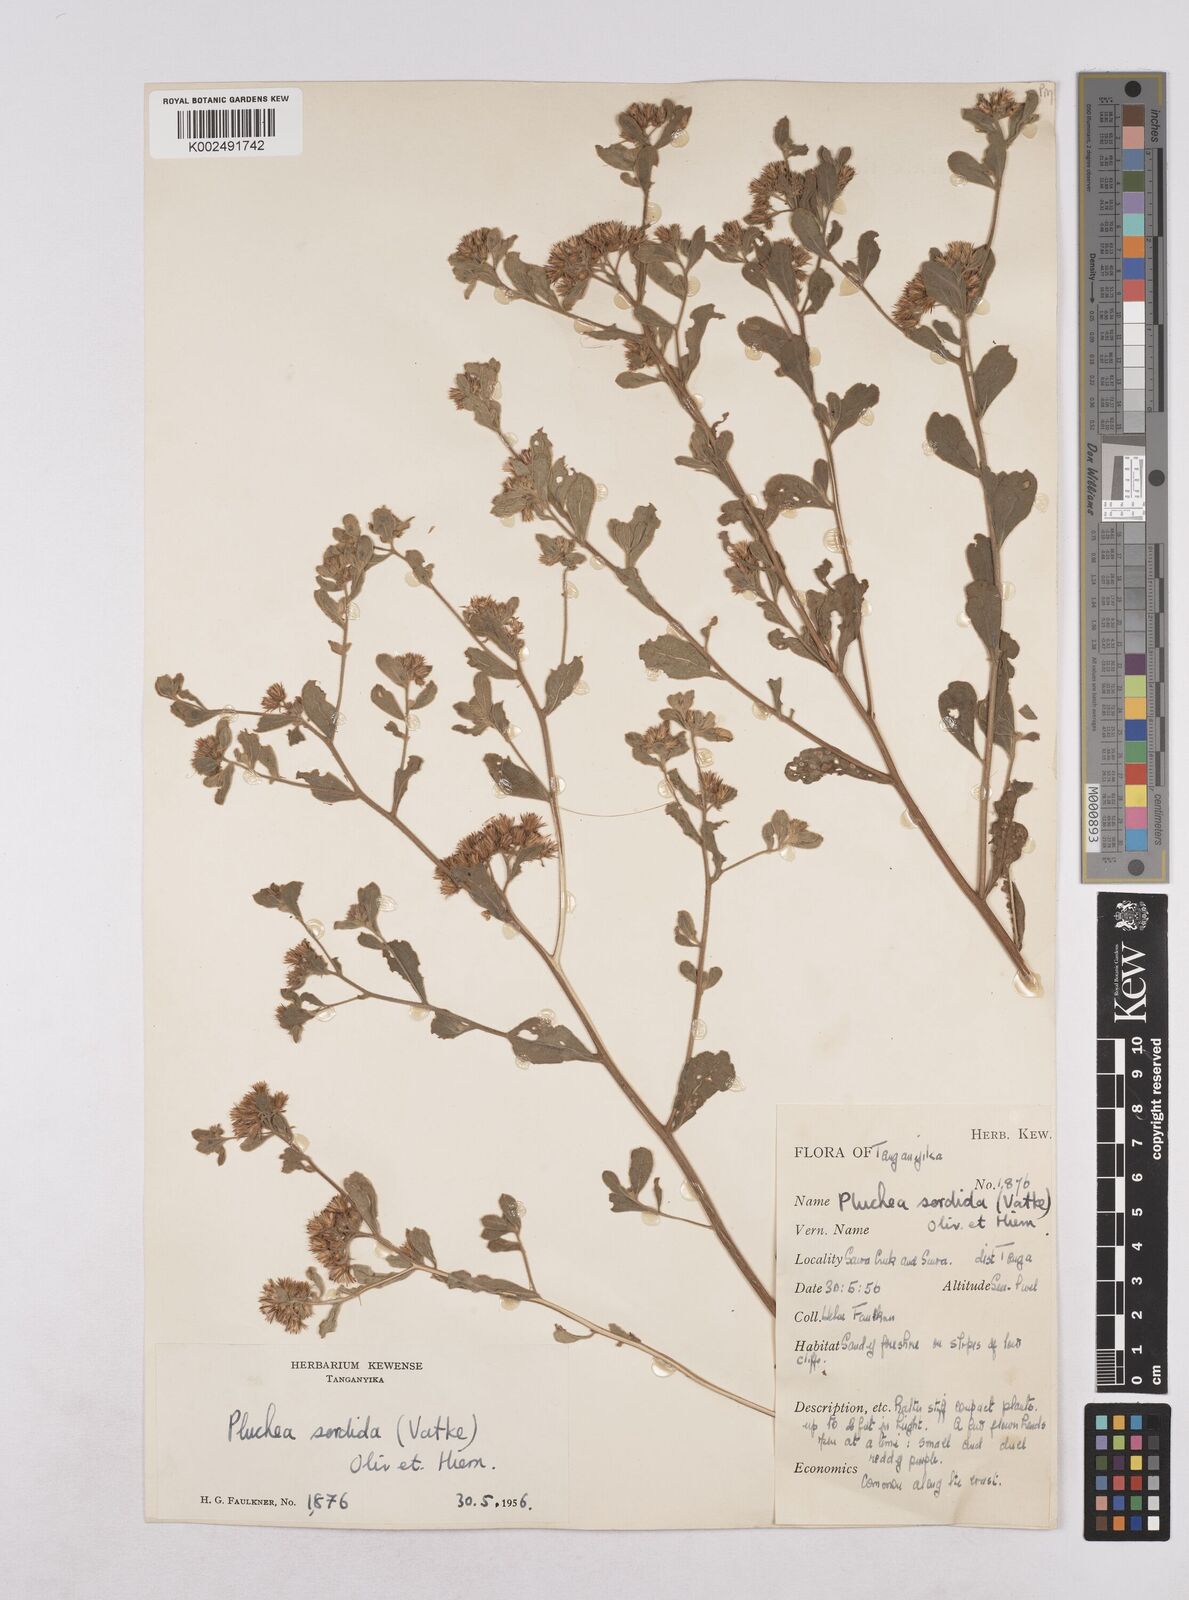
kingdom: Plantae
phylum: Tracheophyta
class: Magnoliopsida
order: Asterales
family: Asteraceae
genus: Pluchea
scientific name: Pluchea sordida
